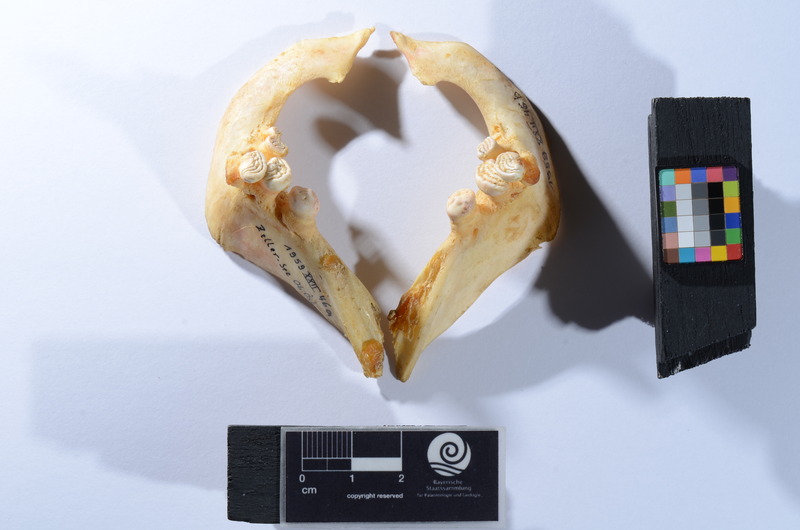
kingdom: Animalia
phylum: Chordata
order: Cypriniformes
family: Cyprinidae
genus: Cyprinus
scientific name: Cyprinus carpio
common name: Common carp
